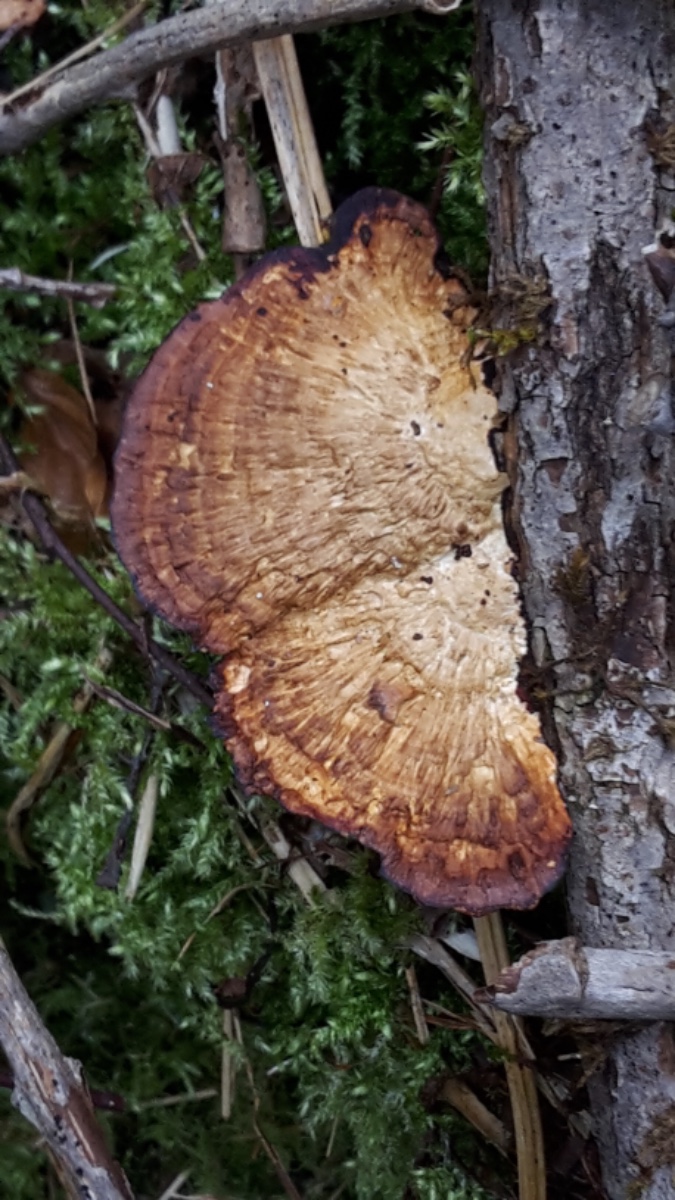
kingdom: Fungi
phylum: Basidiomycota
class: Agaricomycetes
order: Polyporales
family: Polyporaceae
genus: Daedaleopsis
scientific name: Daedaleopsis confragosa
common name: rødmende læderporesvamp
